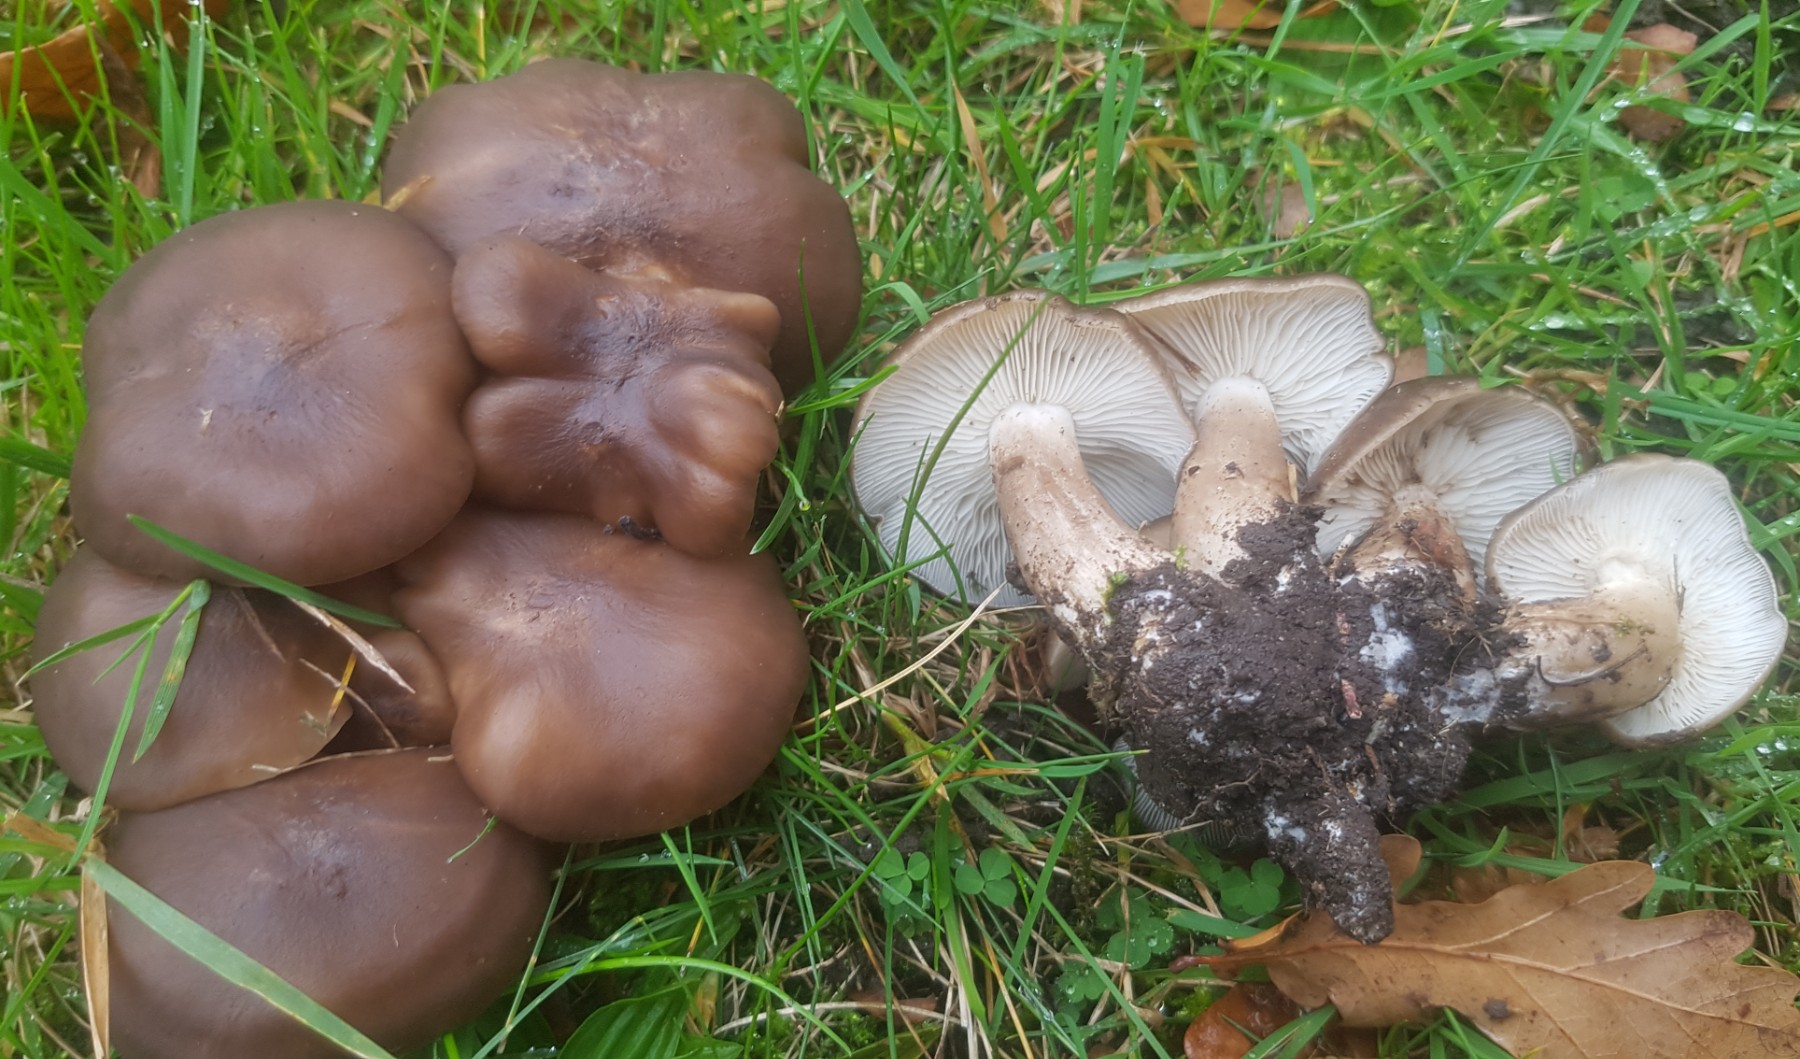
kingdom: Fungi
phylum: Basidiomycota
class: Agaricomycetes
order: Agaricales
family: Lyophyllaceae
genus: Lyophyllum
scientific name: Lyophyllum decastes
